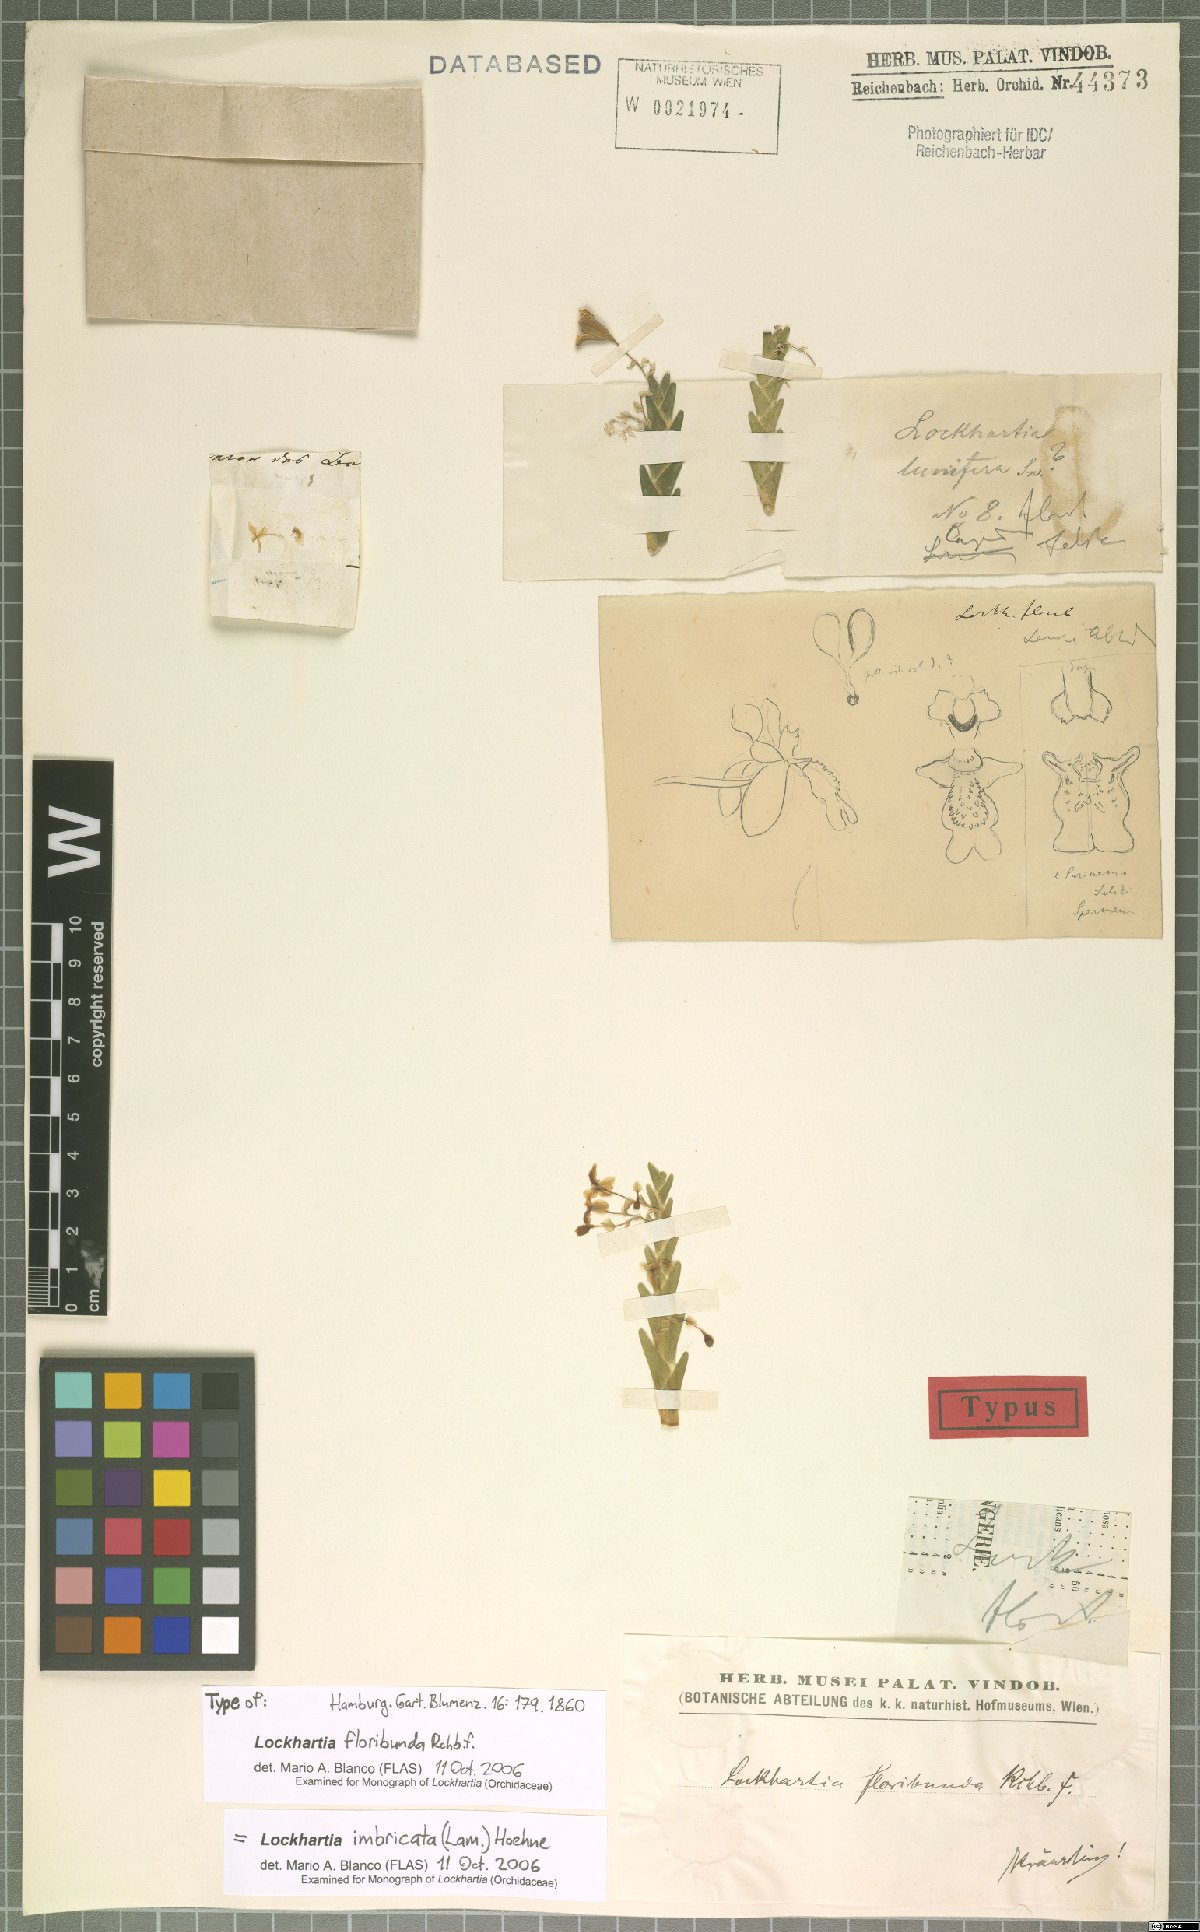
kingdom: Plantae
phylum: Tracheophyta
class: Liliopsida
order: Asparagales
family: Orchidaceae
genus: Lockhartia
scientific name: Lockhartia imbricata
